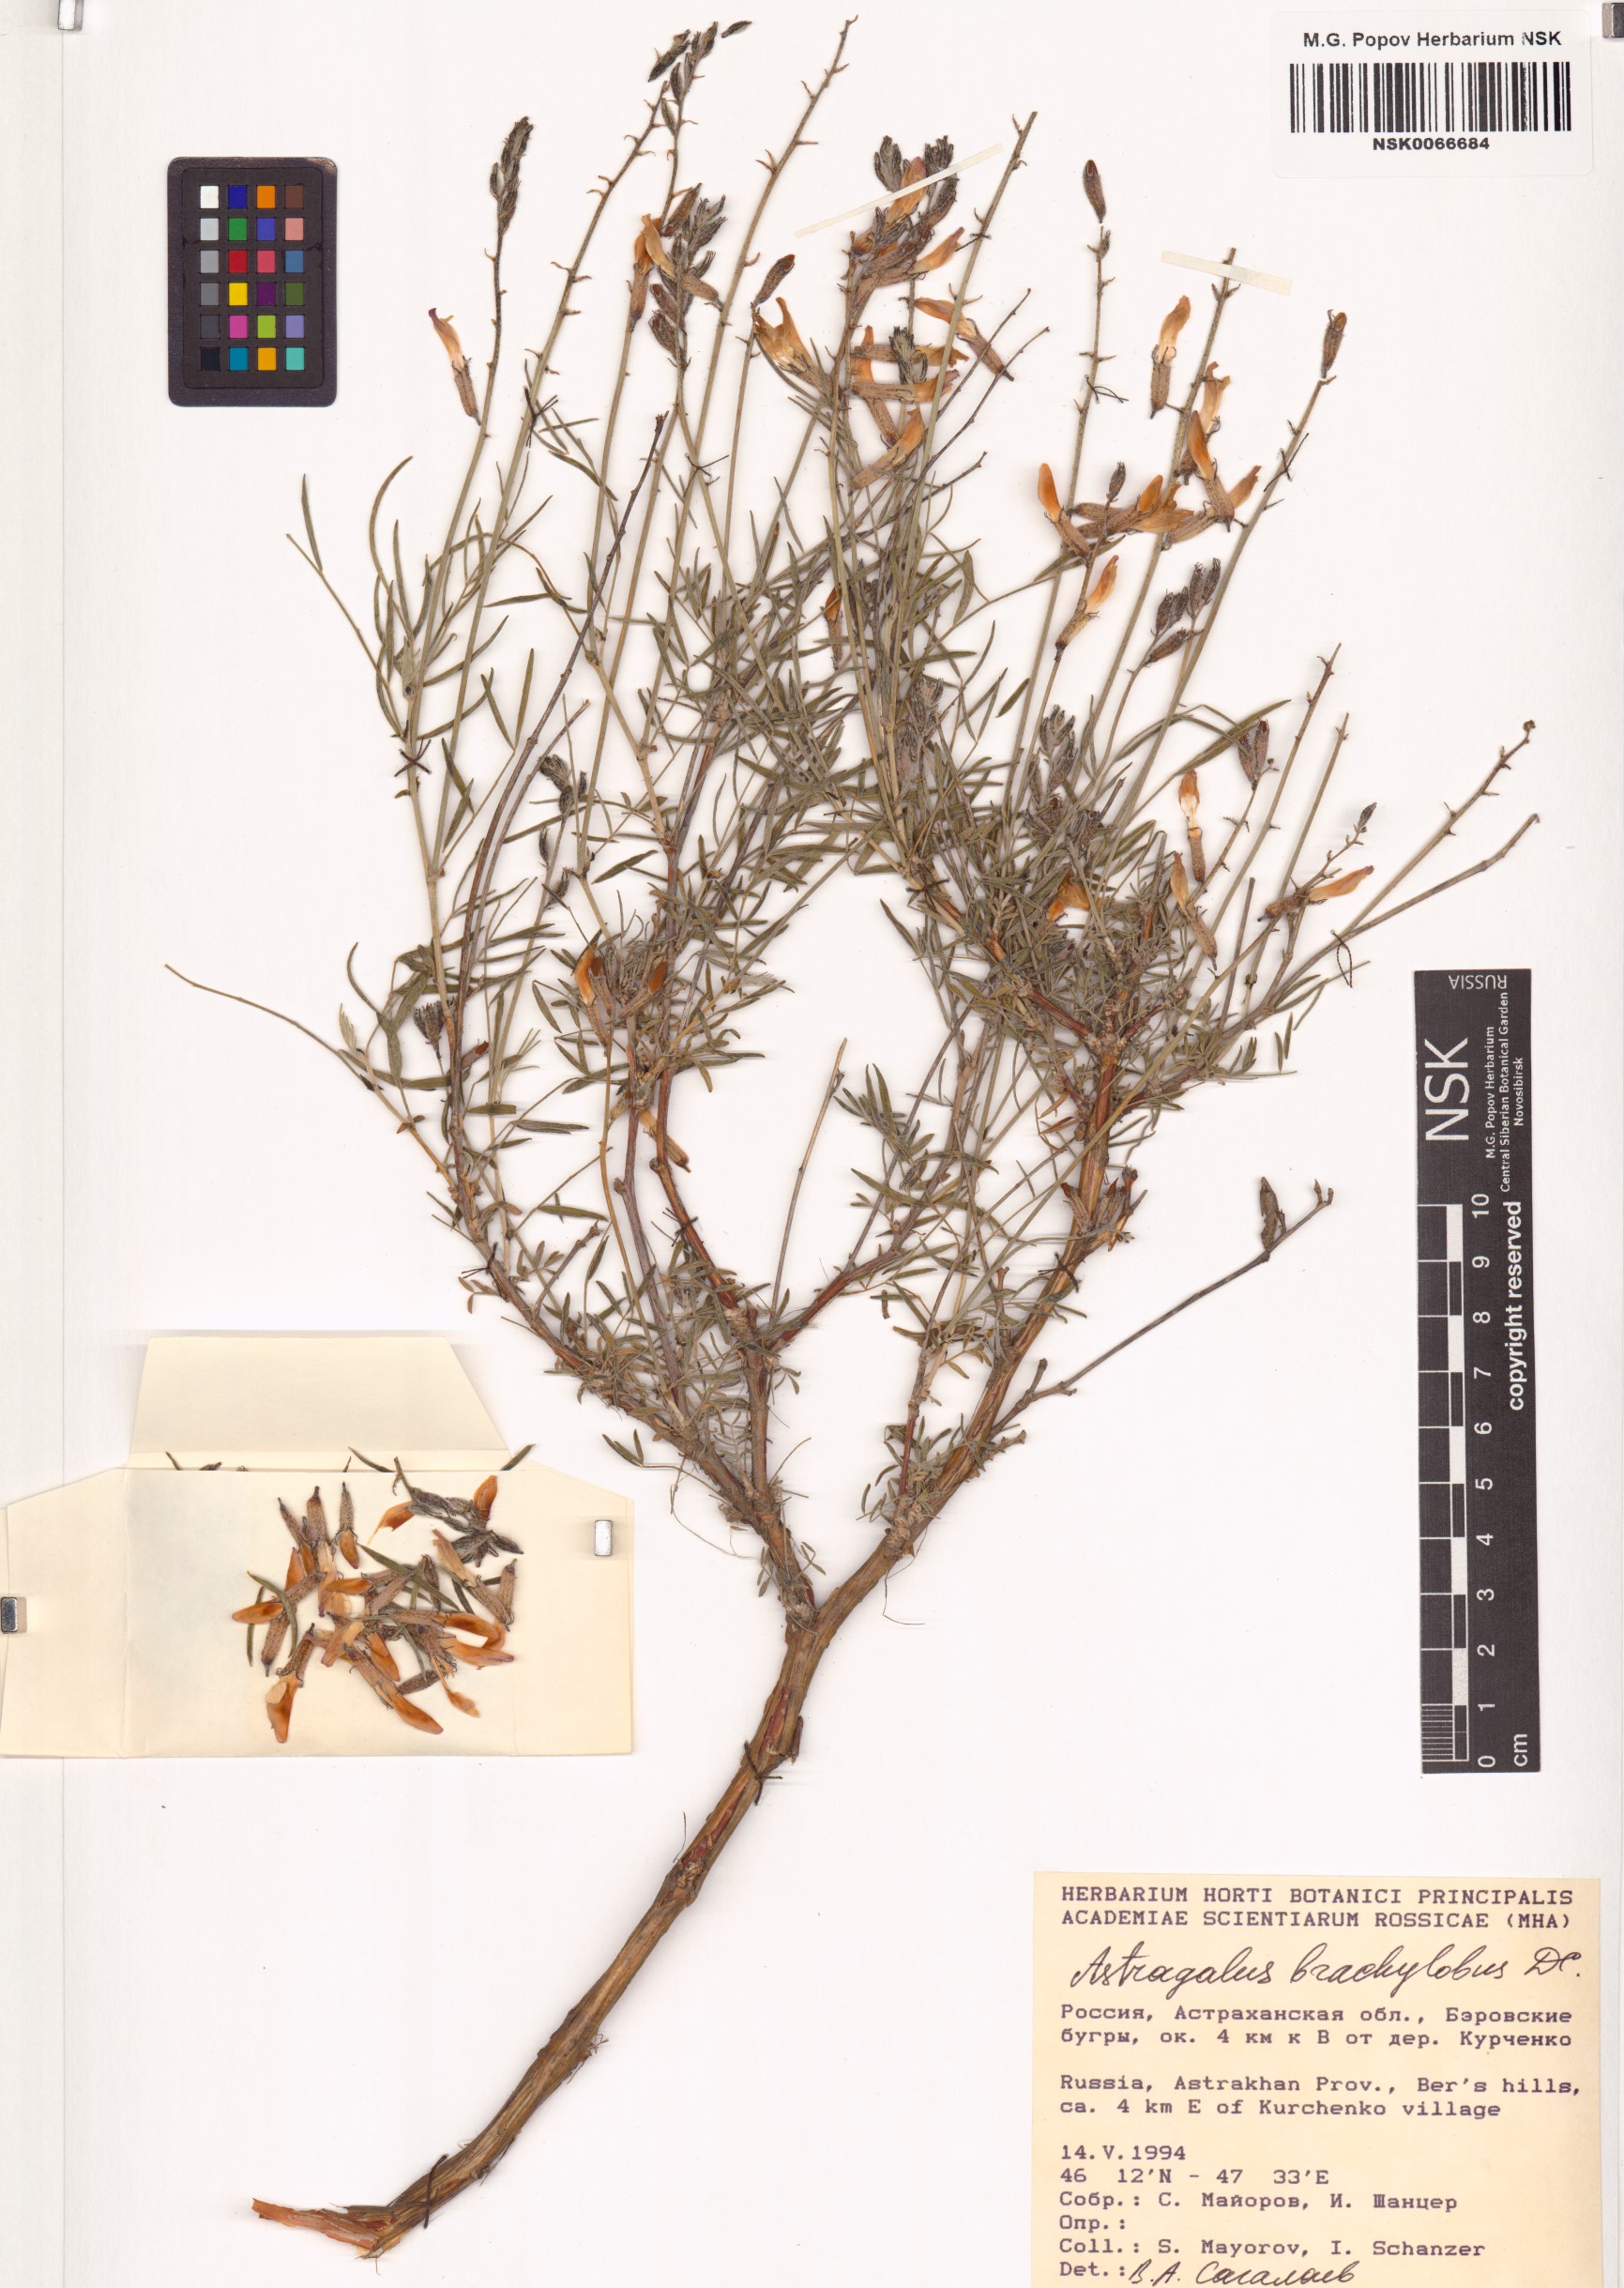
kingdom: Plantae
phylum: Tracheophyta
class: Magnoliopsida
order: Fabales
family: Fabaceae
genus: Astragalus
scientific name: Astragalus brachylobus
